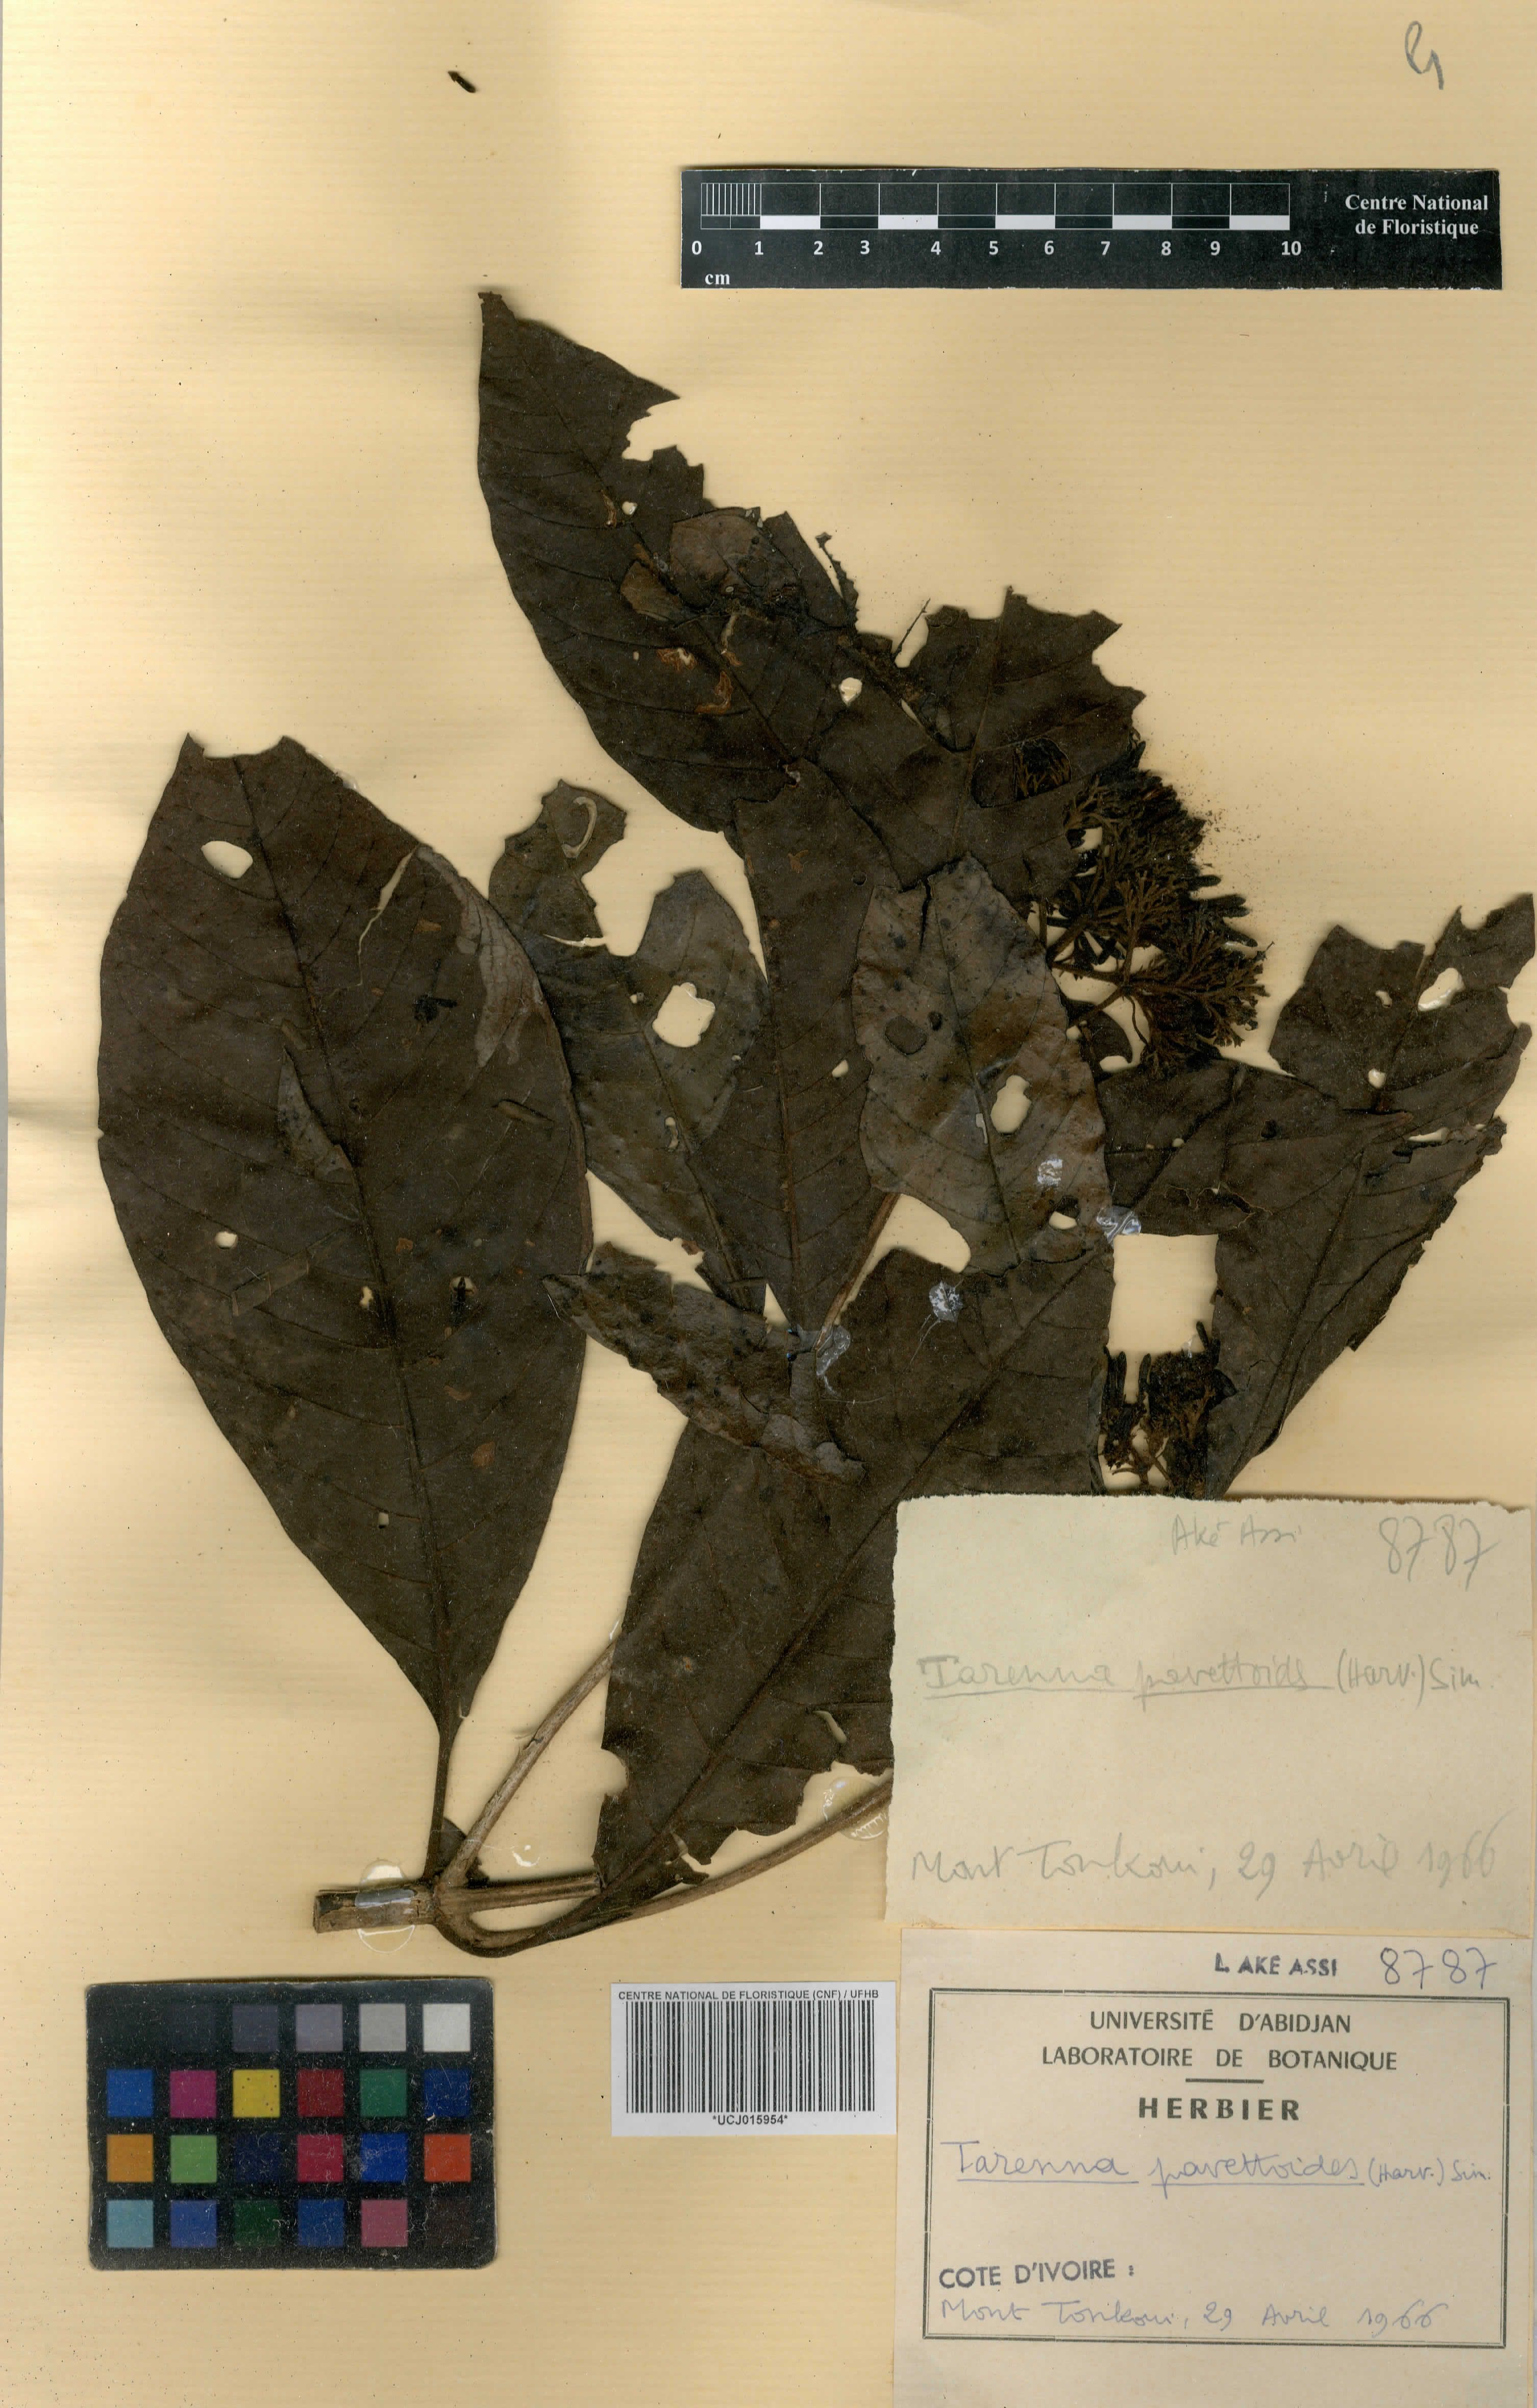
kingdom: Plantae
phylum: Tracheophyta
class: Magnoliopsida
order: Gentianales
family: Rubiaceae
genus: Tarenna
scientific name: Tarenna pavettoides
